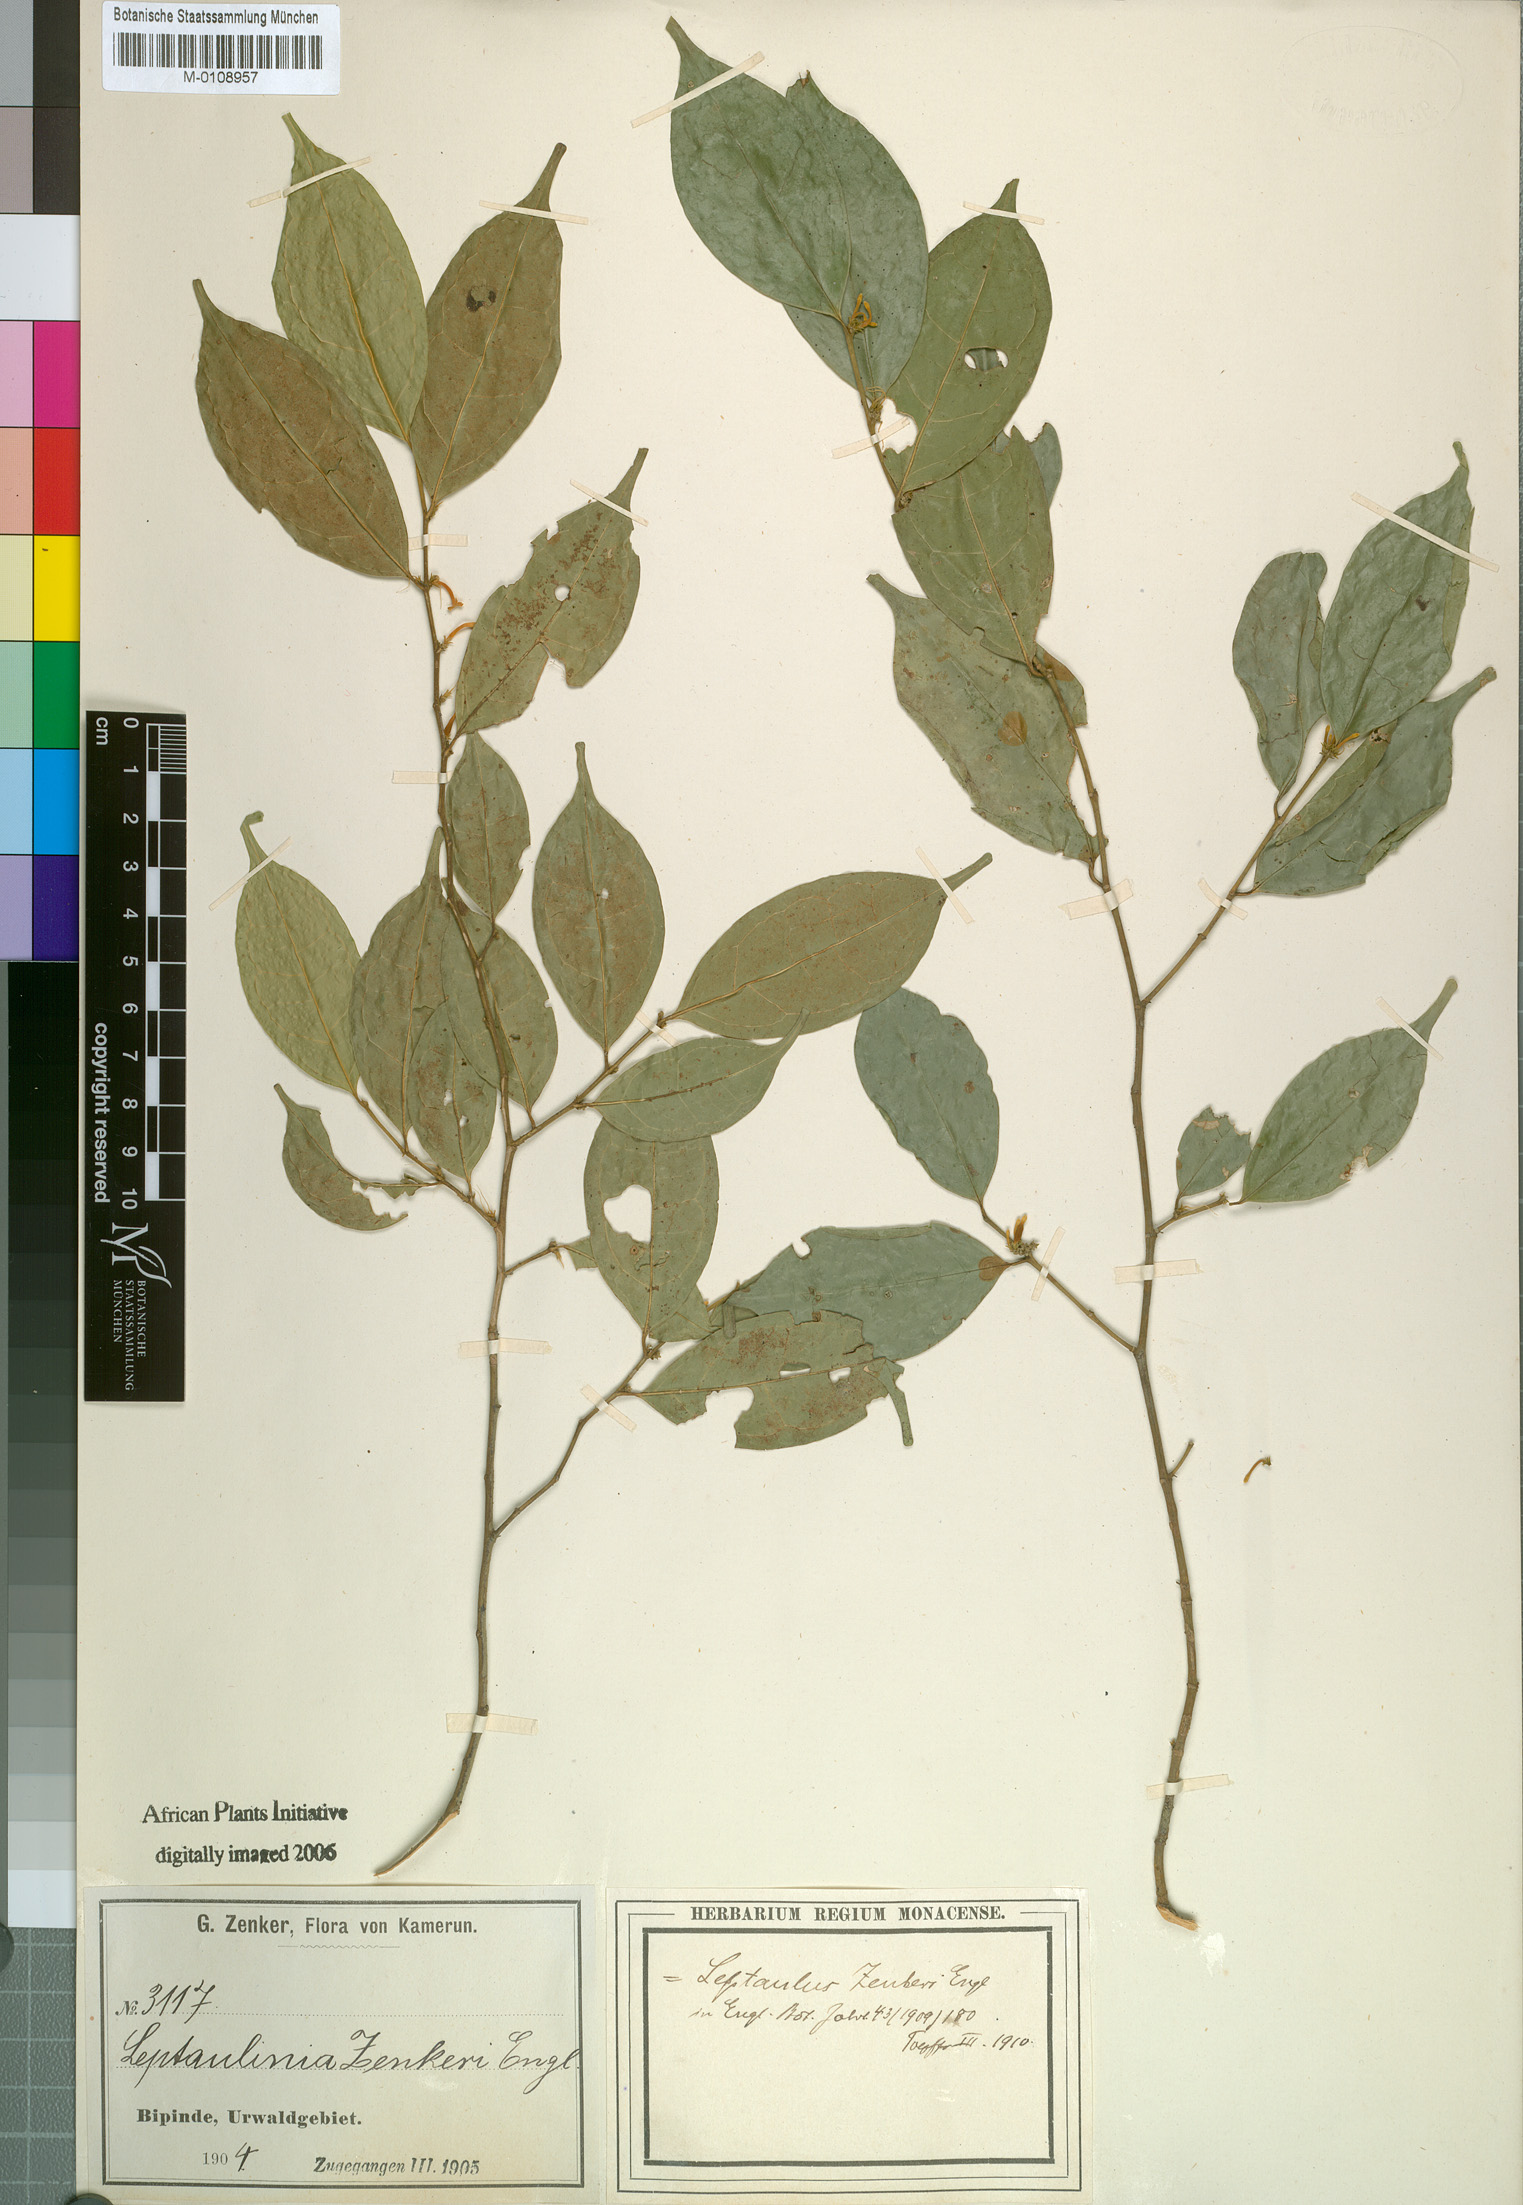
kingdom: Plantae
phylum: Tracheophyta
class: Magnoliopsida
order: Cardiopteridales
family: Cardiopteridaceae
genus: Leptaulus
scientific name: Leptaulus congolanus
